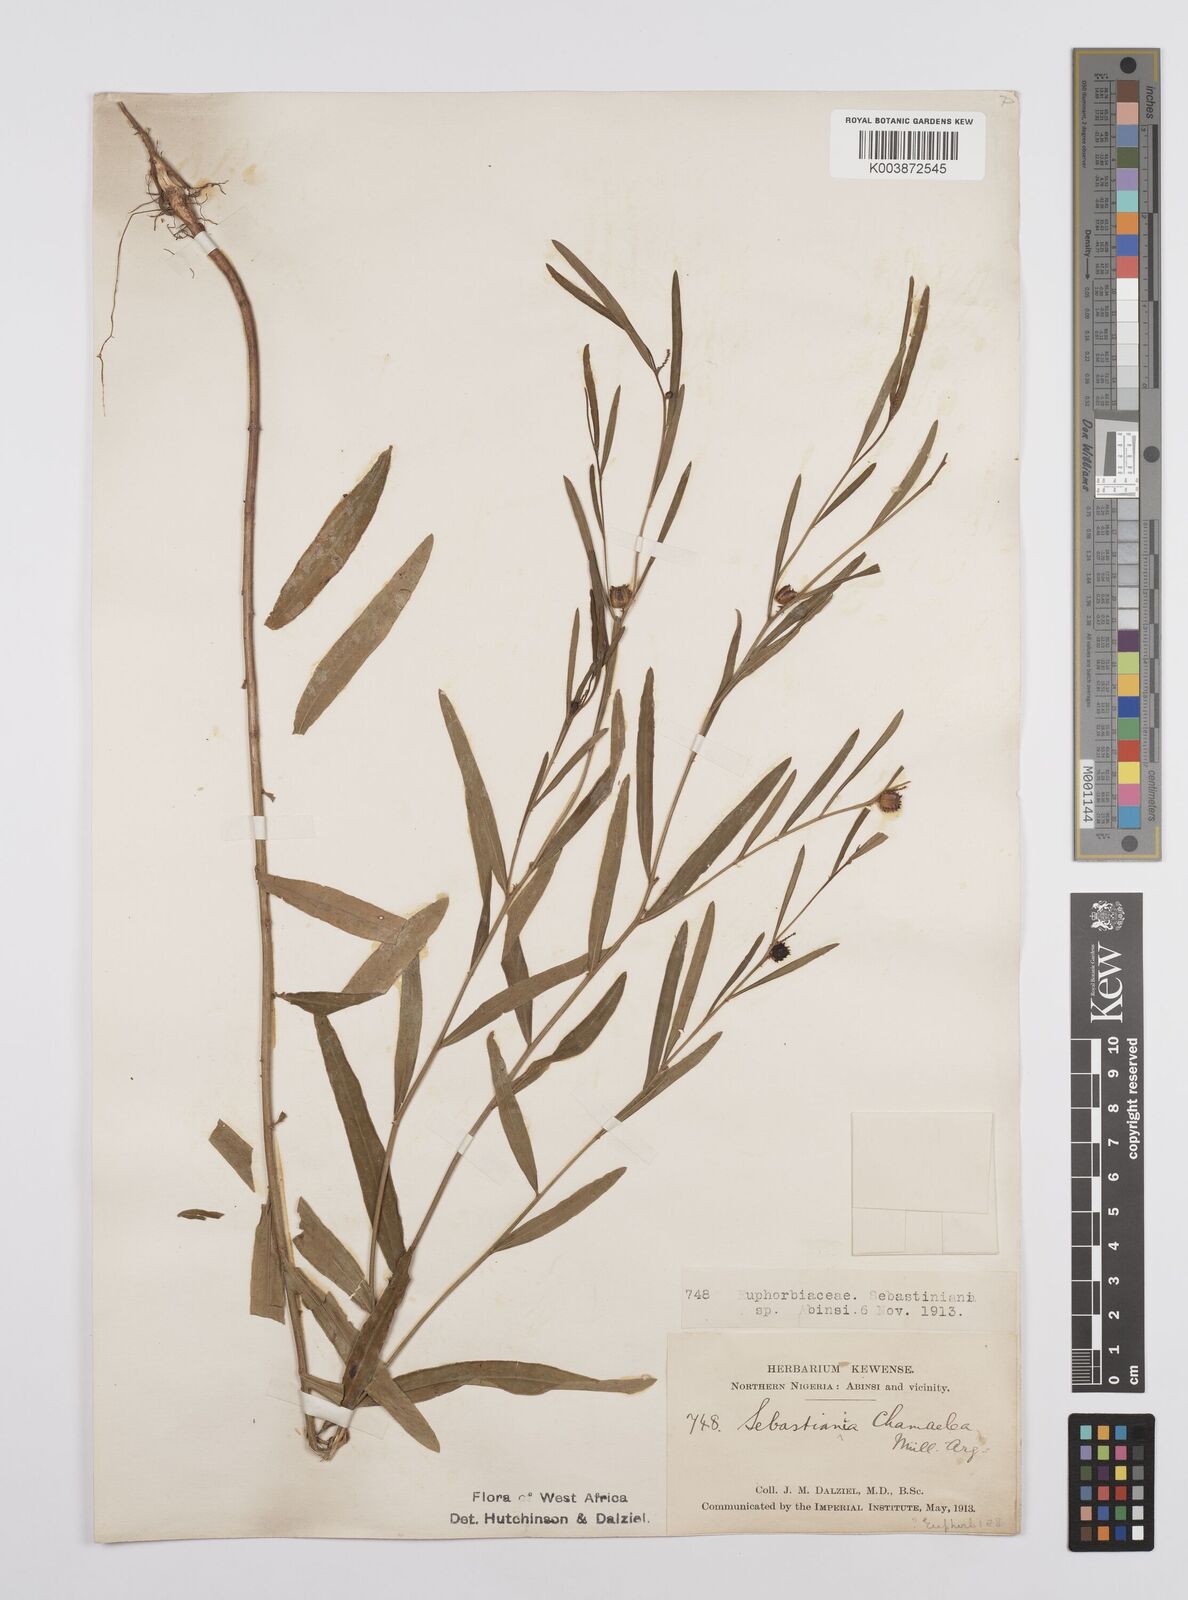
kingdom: Plantae
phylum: Tracheophyta
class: Magnoliopsida
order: Malpighiales
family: Euphorbiaceae
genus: Microstachys
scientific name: Microstachys chamaelea
